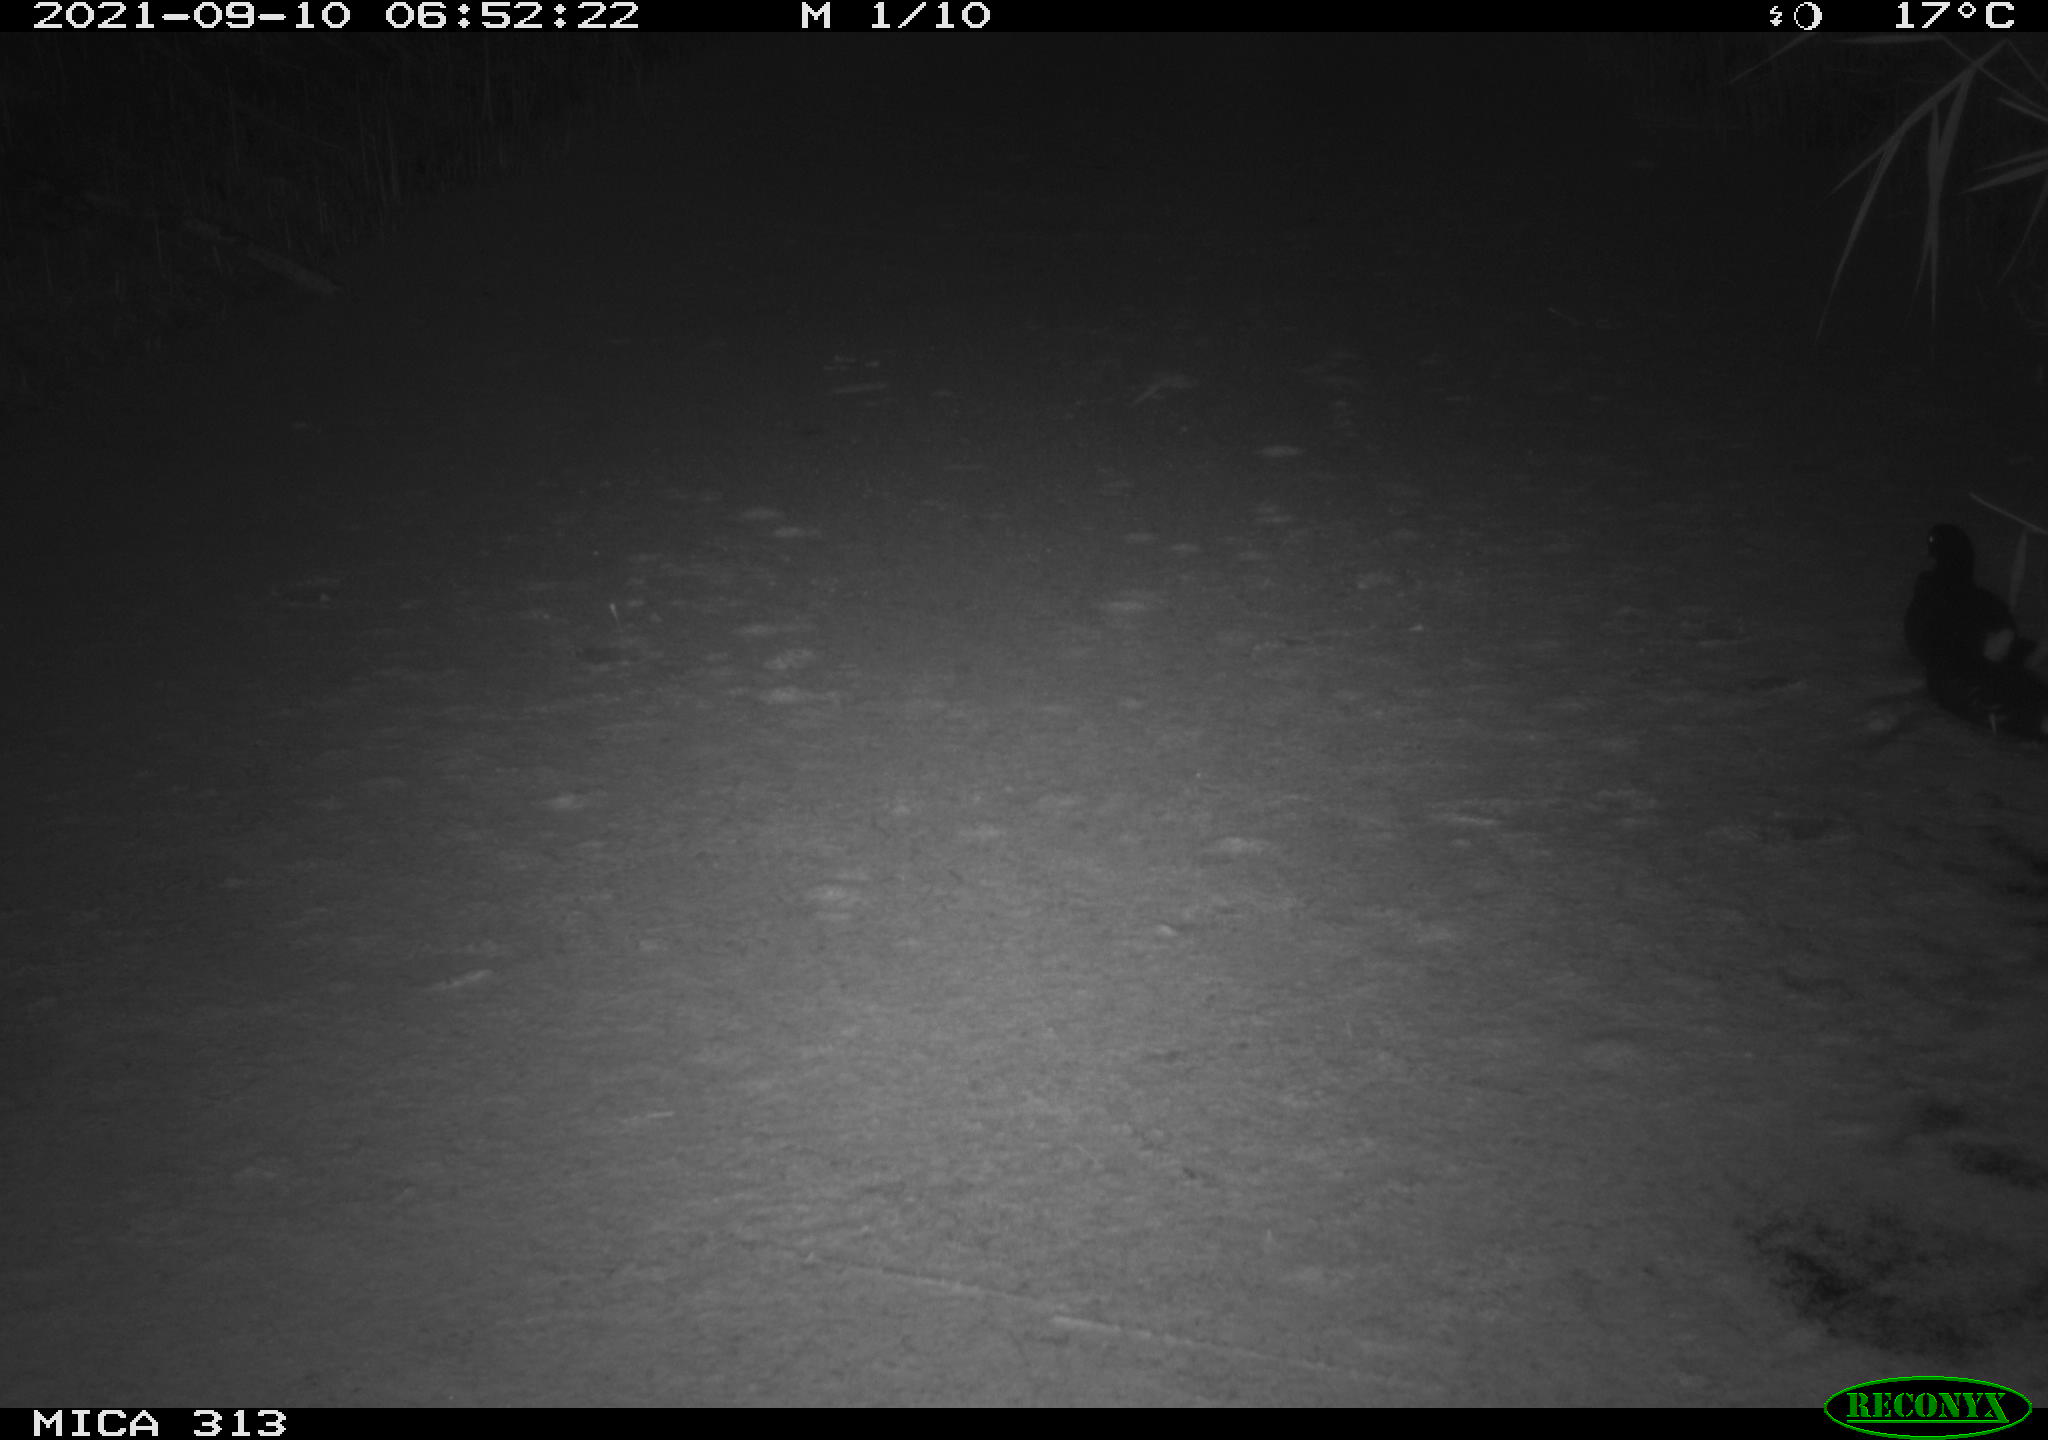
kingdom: Animalia
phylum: Chordata
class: Aves
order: Gruiformes
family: Rallidae
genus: Gallinula
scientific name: Gallinula chloropus
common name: Common moorhen
